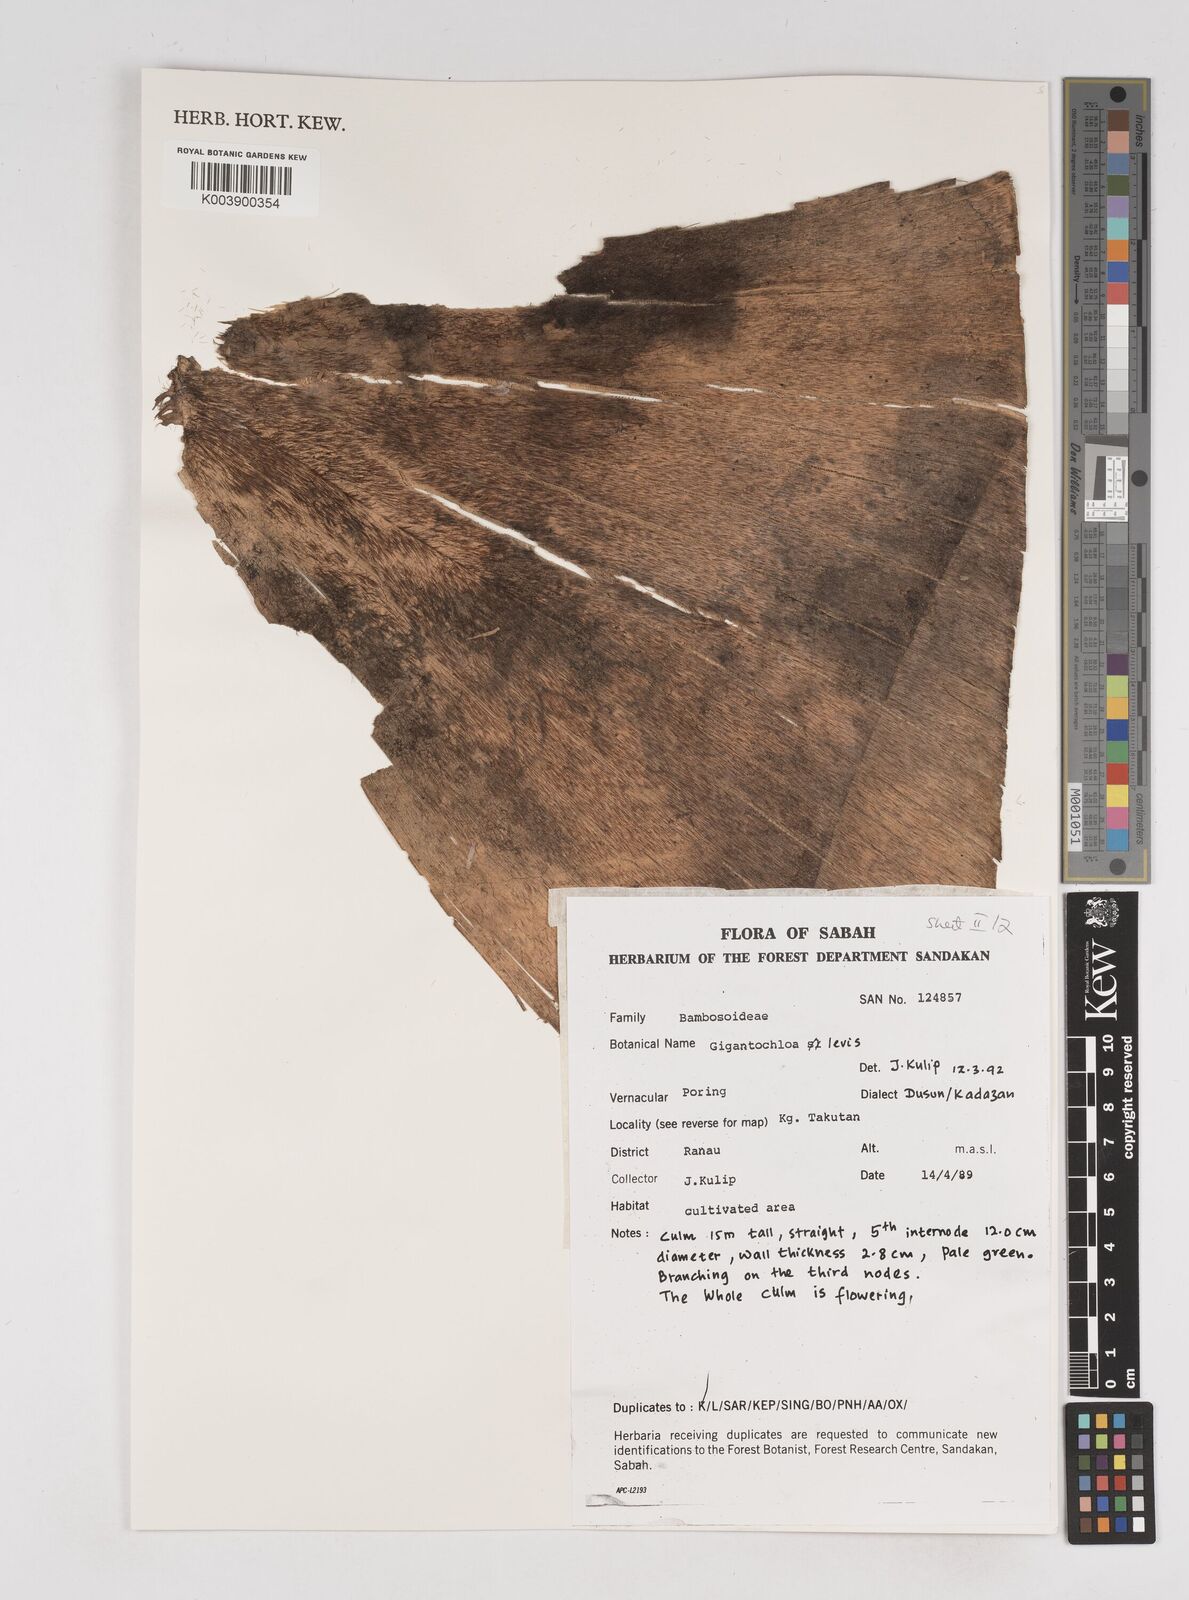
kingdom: Plantae
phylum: Tracheophyta
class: Liliopsida
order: Poales
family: Poaceae
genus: Gigantochloa
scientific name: Gigantochloa levis
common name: Smooth-shoot gigantochloa
